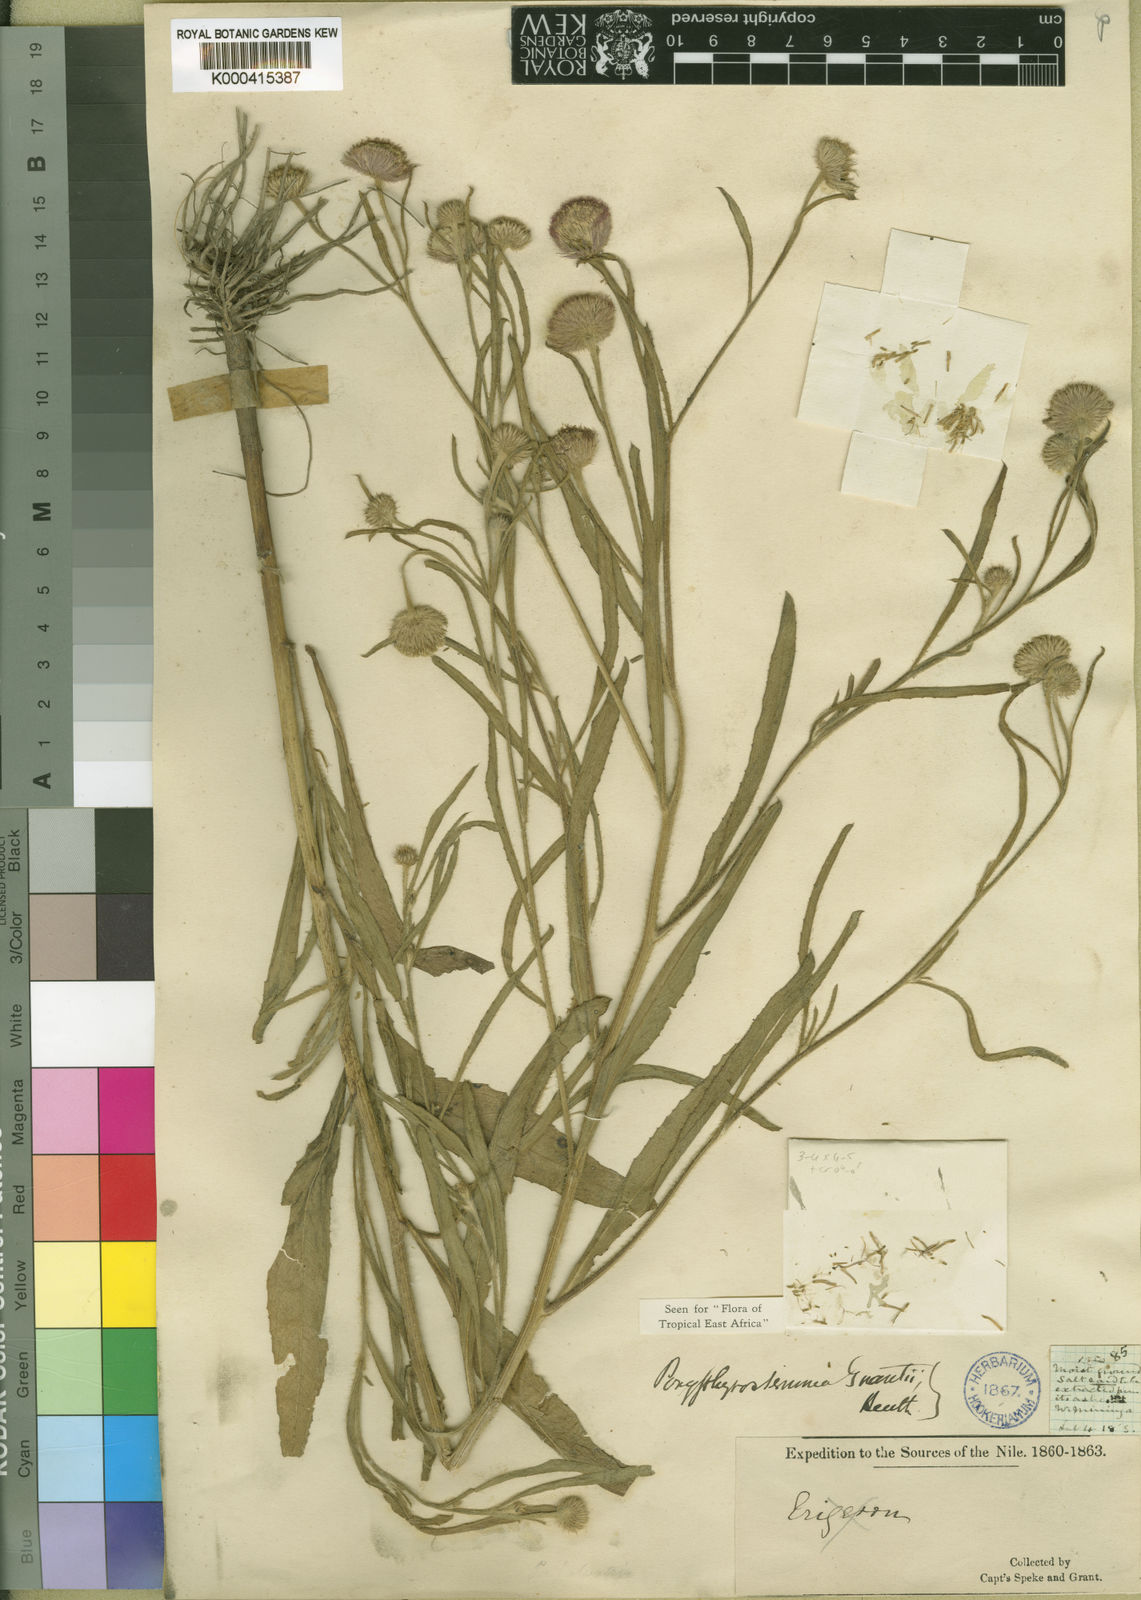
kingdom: Plantae
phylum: Tracheophyta
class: Magnoliopsida
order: Asterales
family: Asteraceae
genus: Porphyrostemma
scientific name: Porphyrostemma grantii
